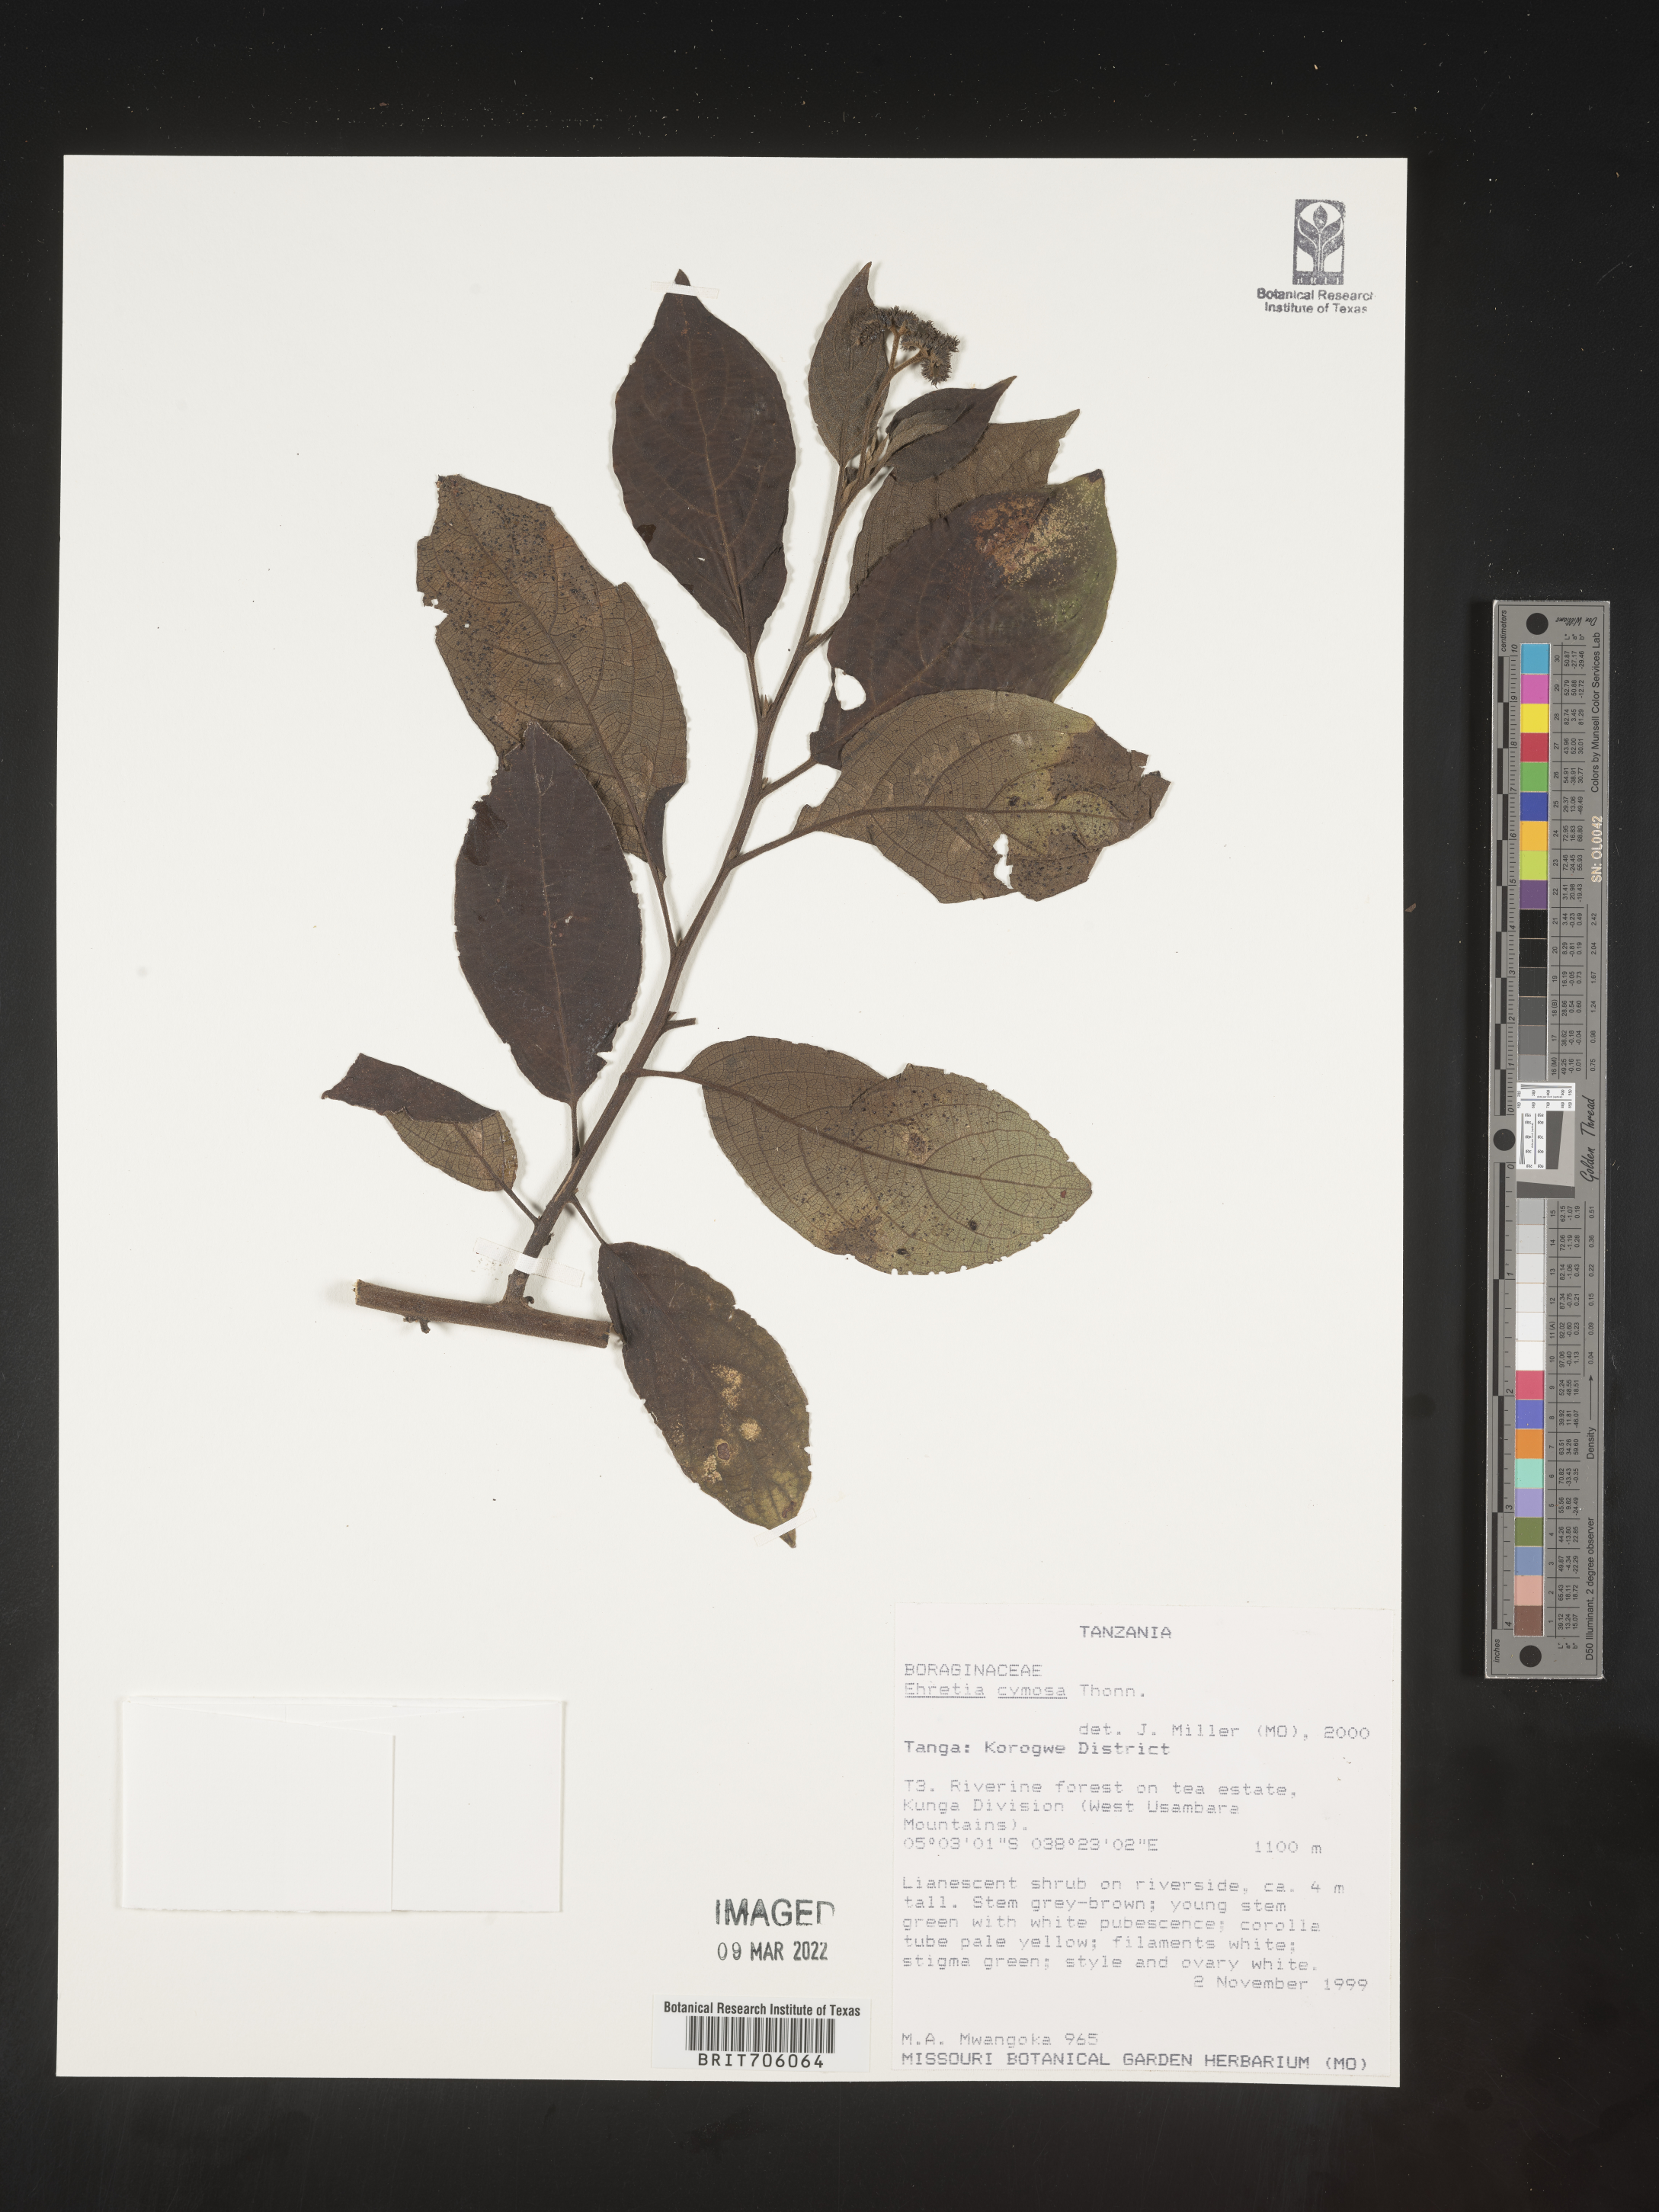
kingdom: Plantae
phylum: Tracheophyta
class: Magnoliopsida
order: Boraginales
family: Ehretiaceae
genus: Ehretia
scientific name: Ehretia
